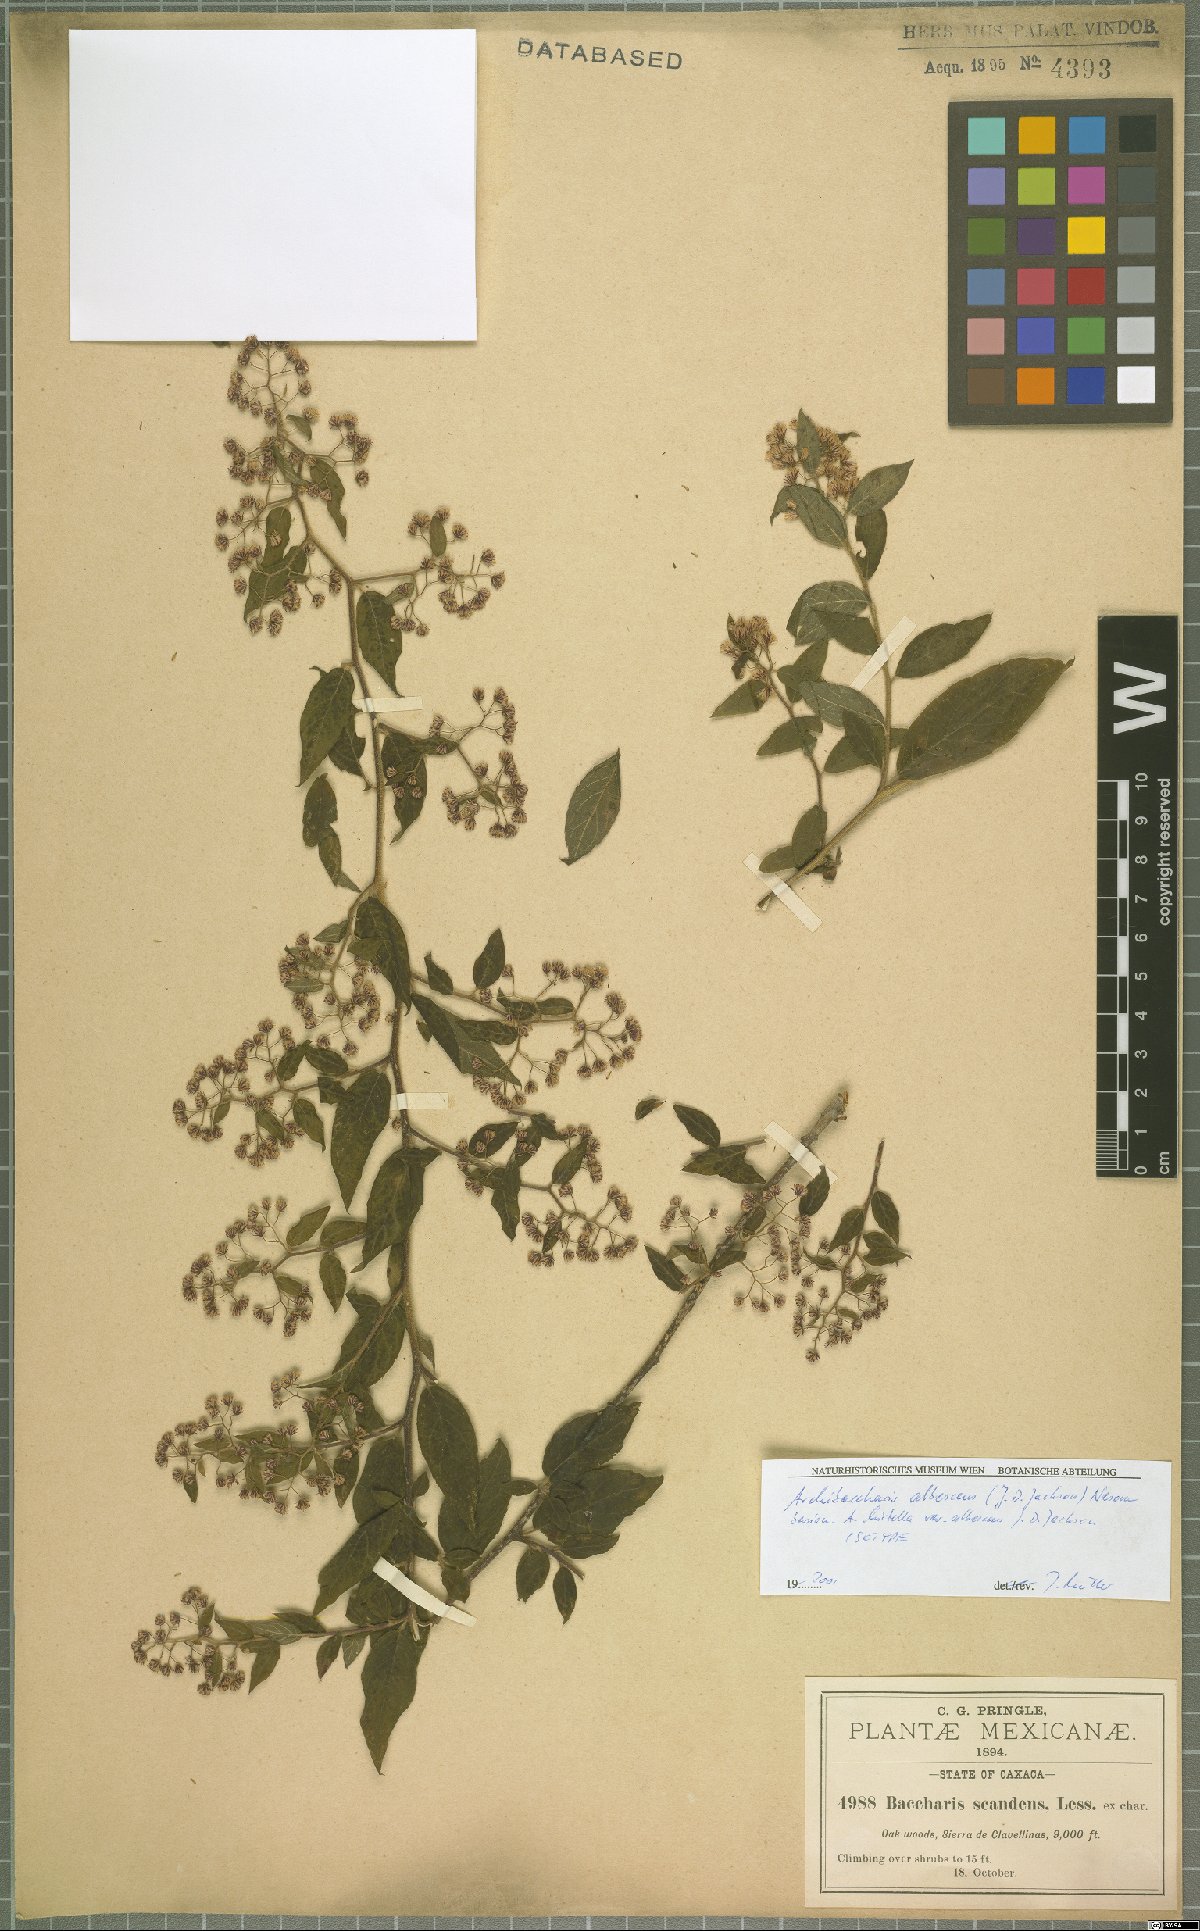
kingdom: Plantae
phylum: Tracheophyta
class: Magnoliopsida
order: Asterales
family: Asteraceae
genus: Archibaccharis
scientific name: Archibaccharis albescens
